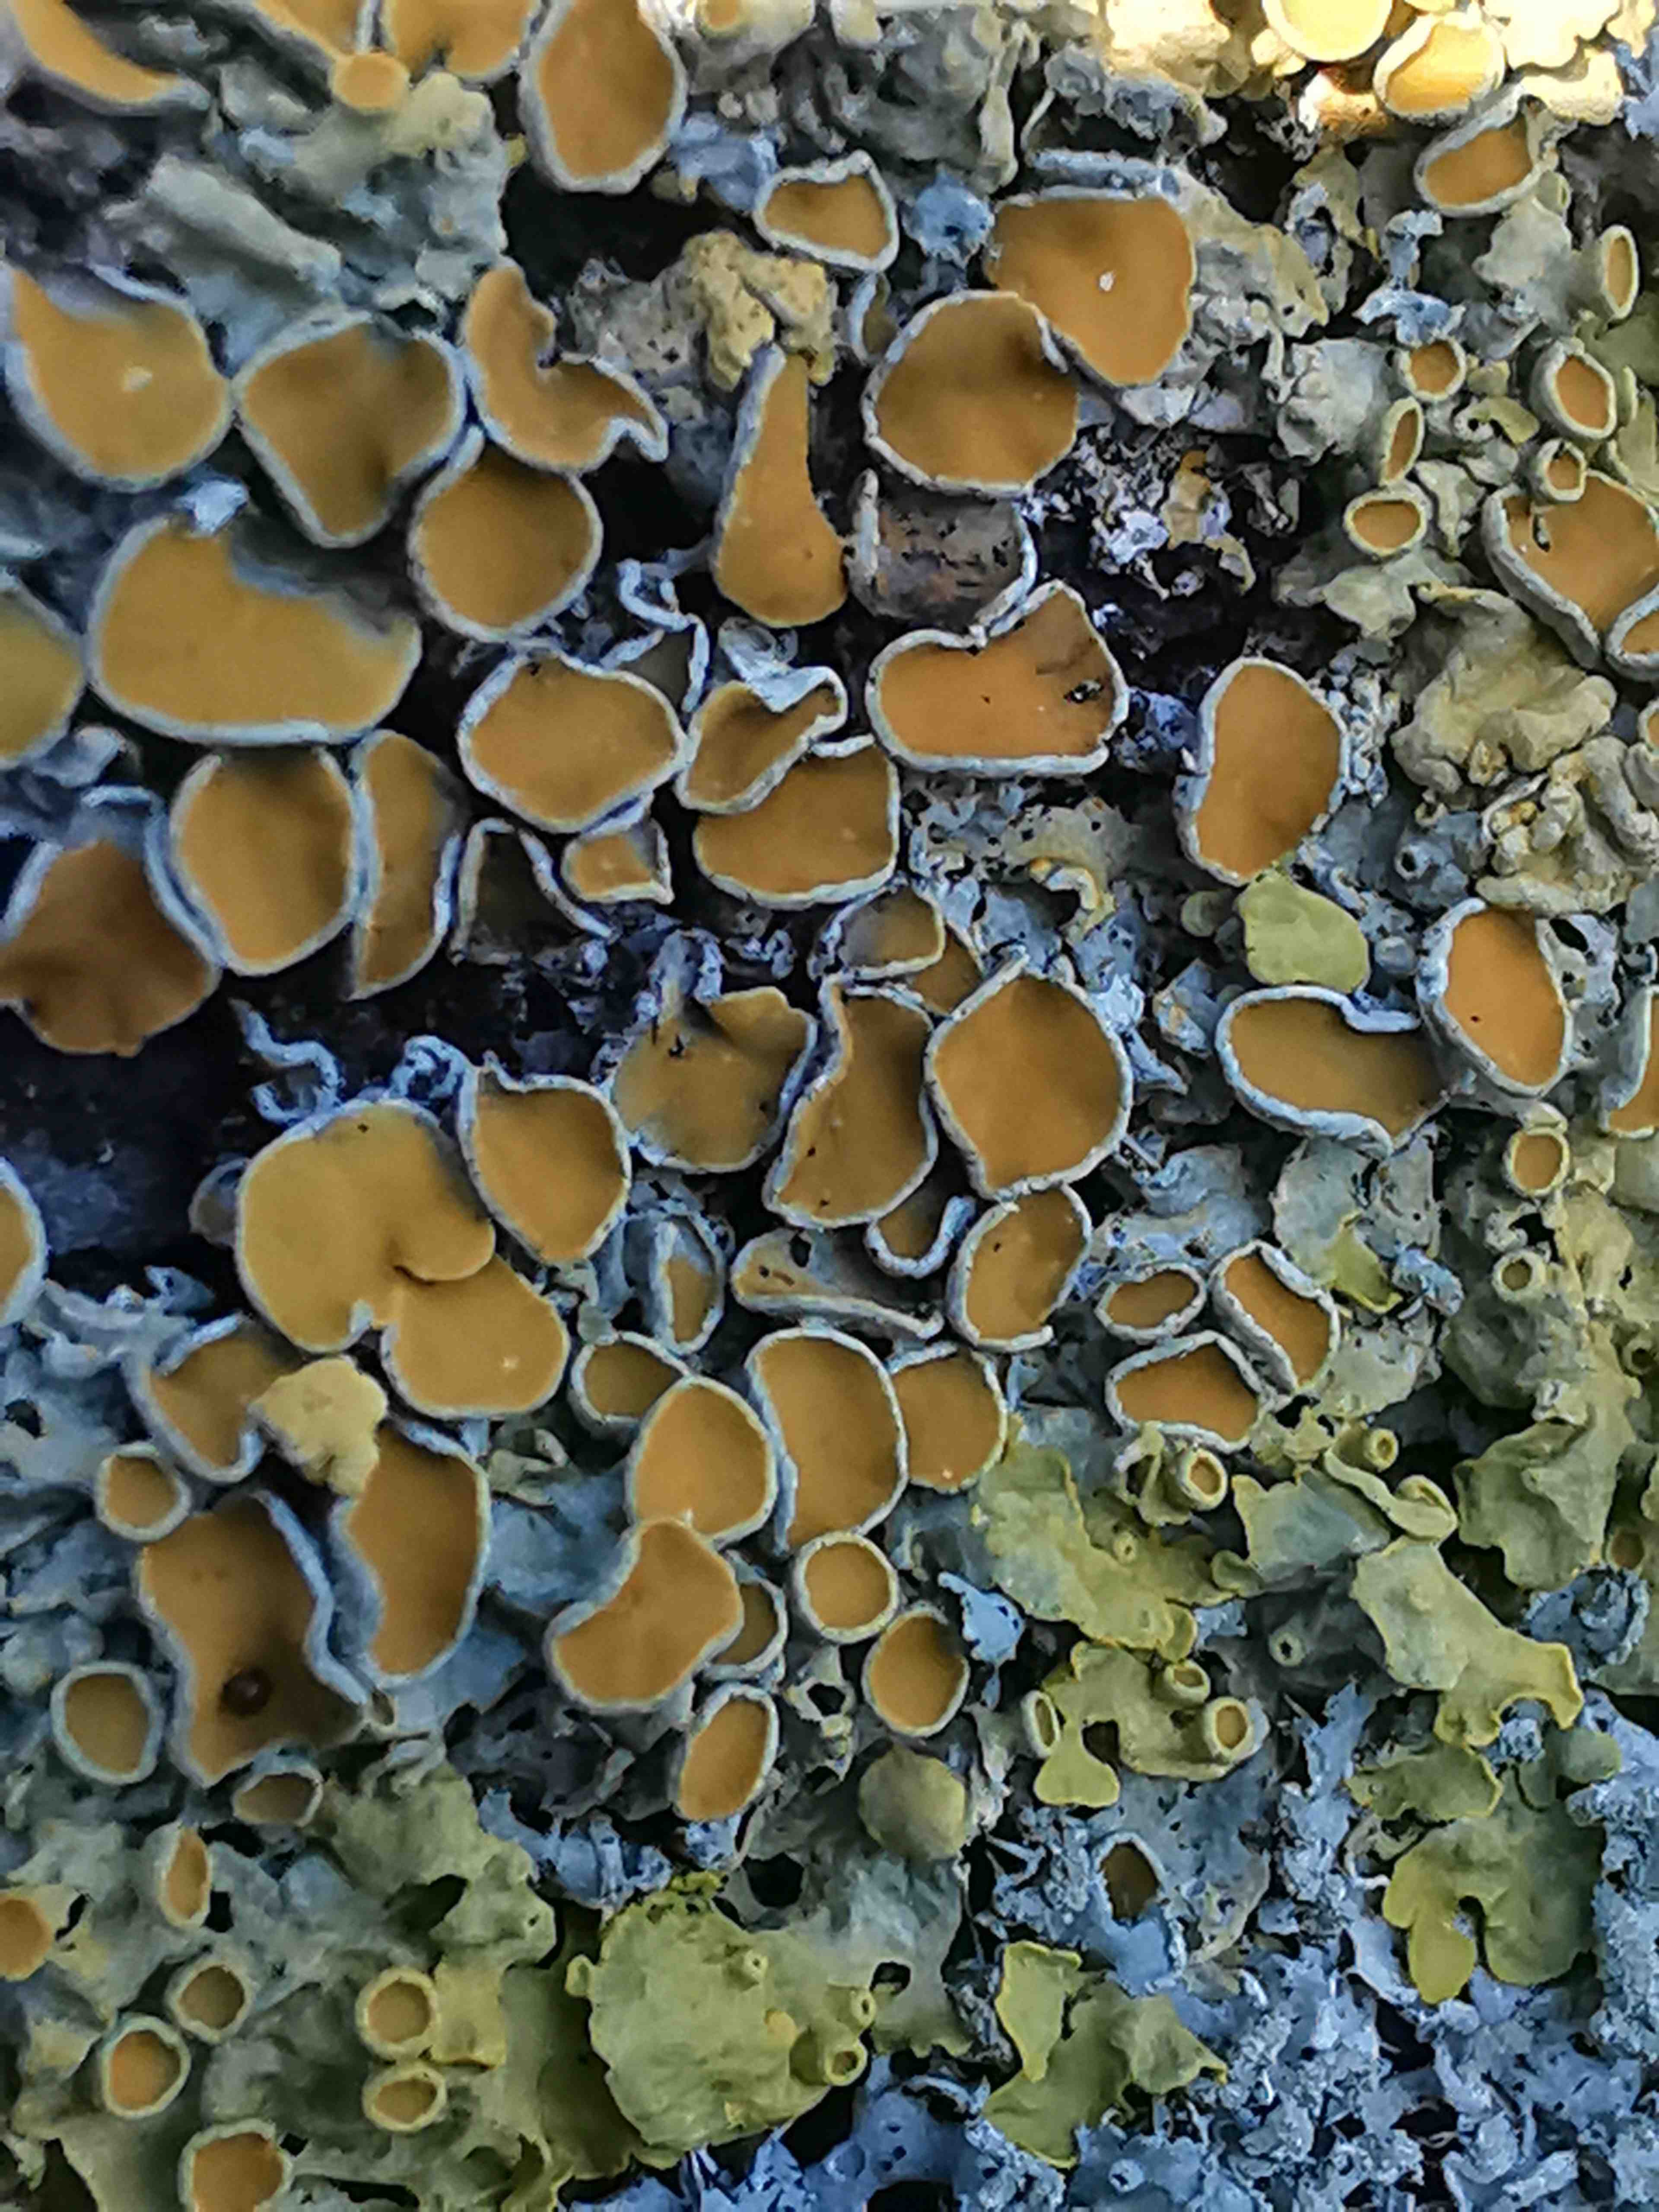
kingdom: Fungi
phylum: Ascomycota
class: Lecanoromycetes
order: Teloschistales
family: Teloschistaceae
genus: Xanthoria
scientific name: Xanthoria parietina
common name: almindelig væggelav
